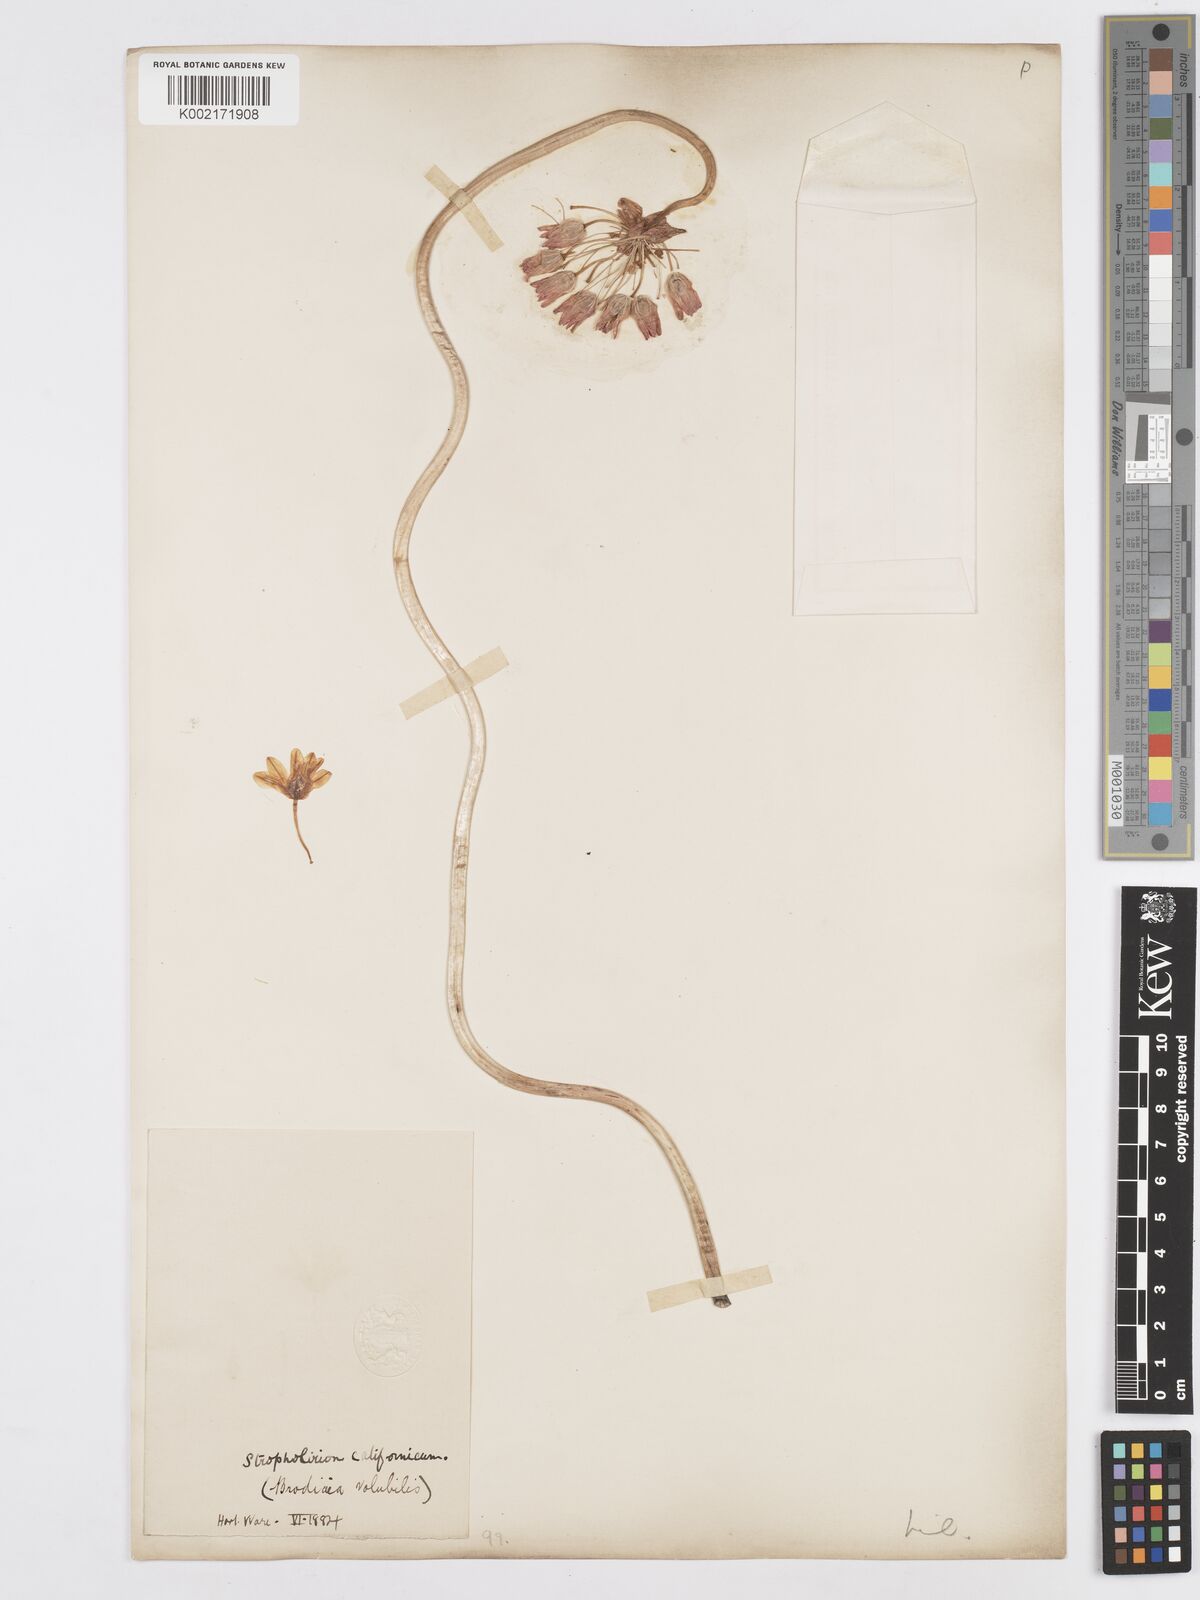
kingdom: Plantae
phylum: Tracheophyta
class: Liliopsida
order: Asparagales
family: Asparagaceae
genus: Dichelostemma
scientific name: Dichelostemma volubile
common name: Trining brodiaea
